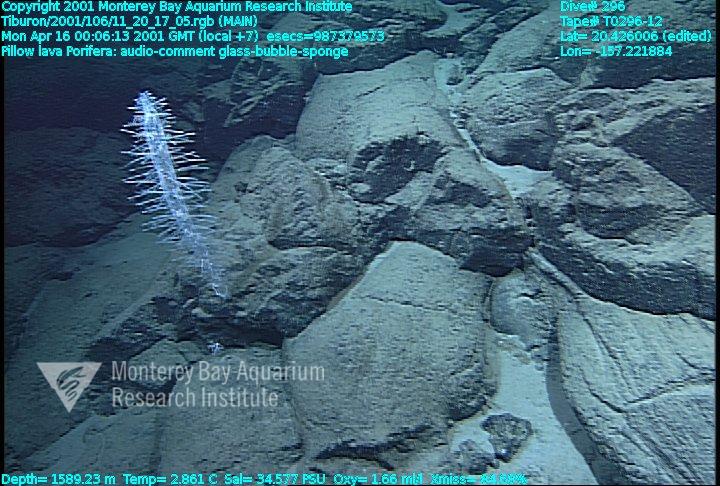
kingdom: Animalia
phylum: Porifera
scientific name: Porifera
